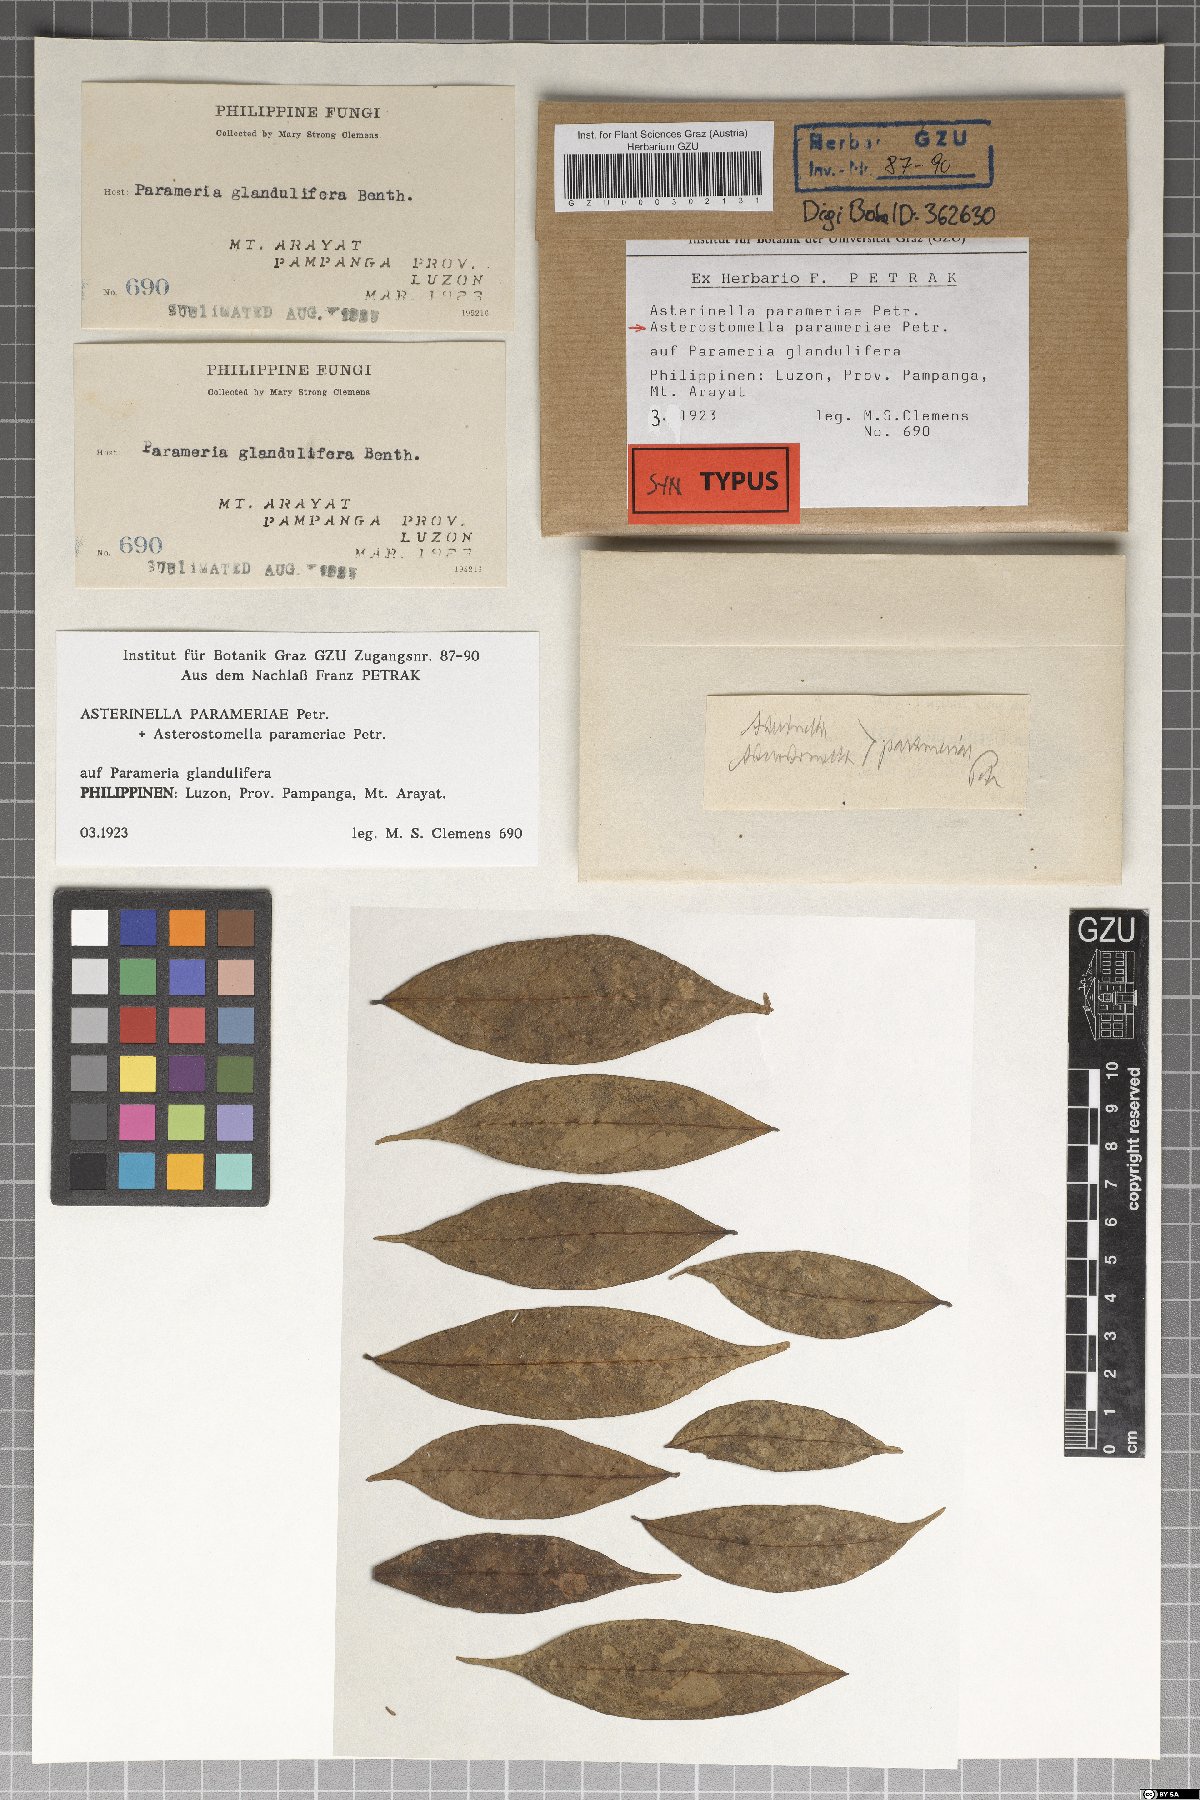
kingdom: Fungi
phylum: Ascomycota
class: Dothideomycetes
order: Asterinales
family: Asterinaceae
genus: Asterostomella
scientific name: Asterostomella parameriae
